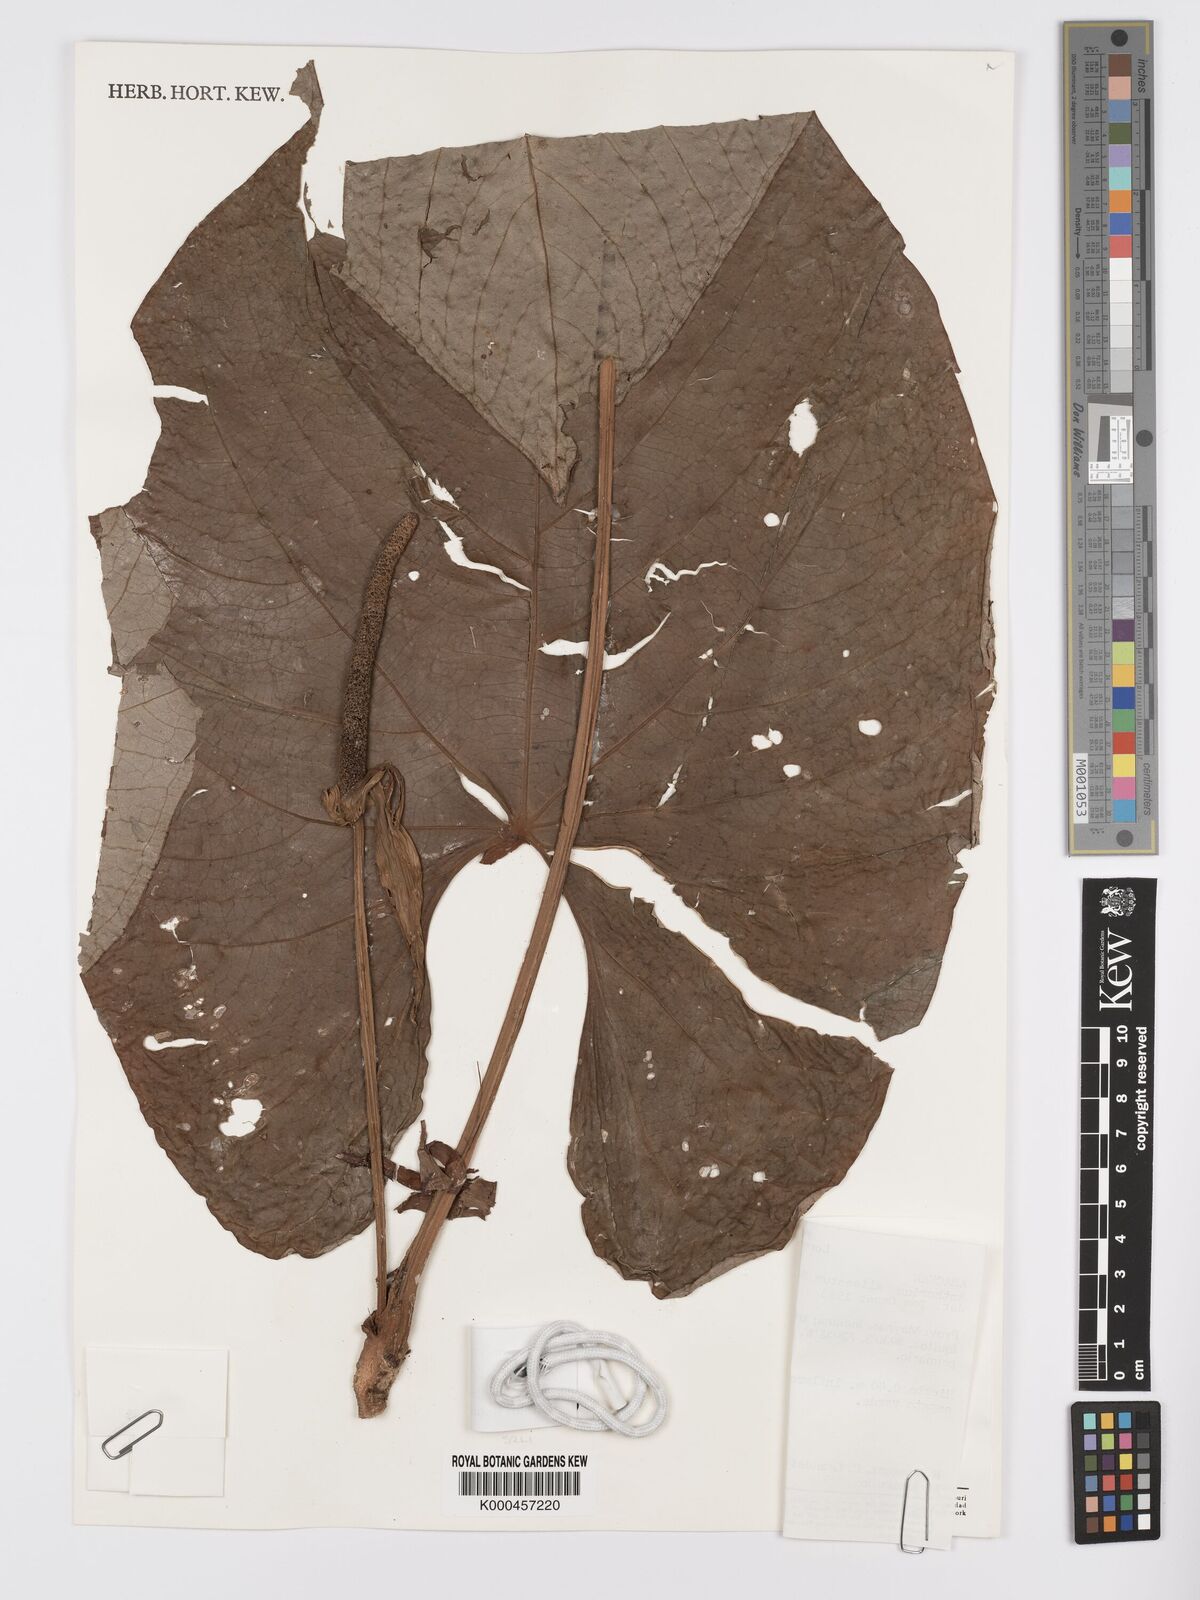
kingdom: Plantae
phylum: Tracheophyta
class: Liliopsida
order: Alismatales
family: Araceae
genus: Anthurium
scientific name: Anthurium sagittatum
